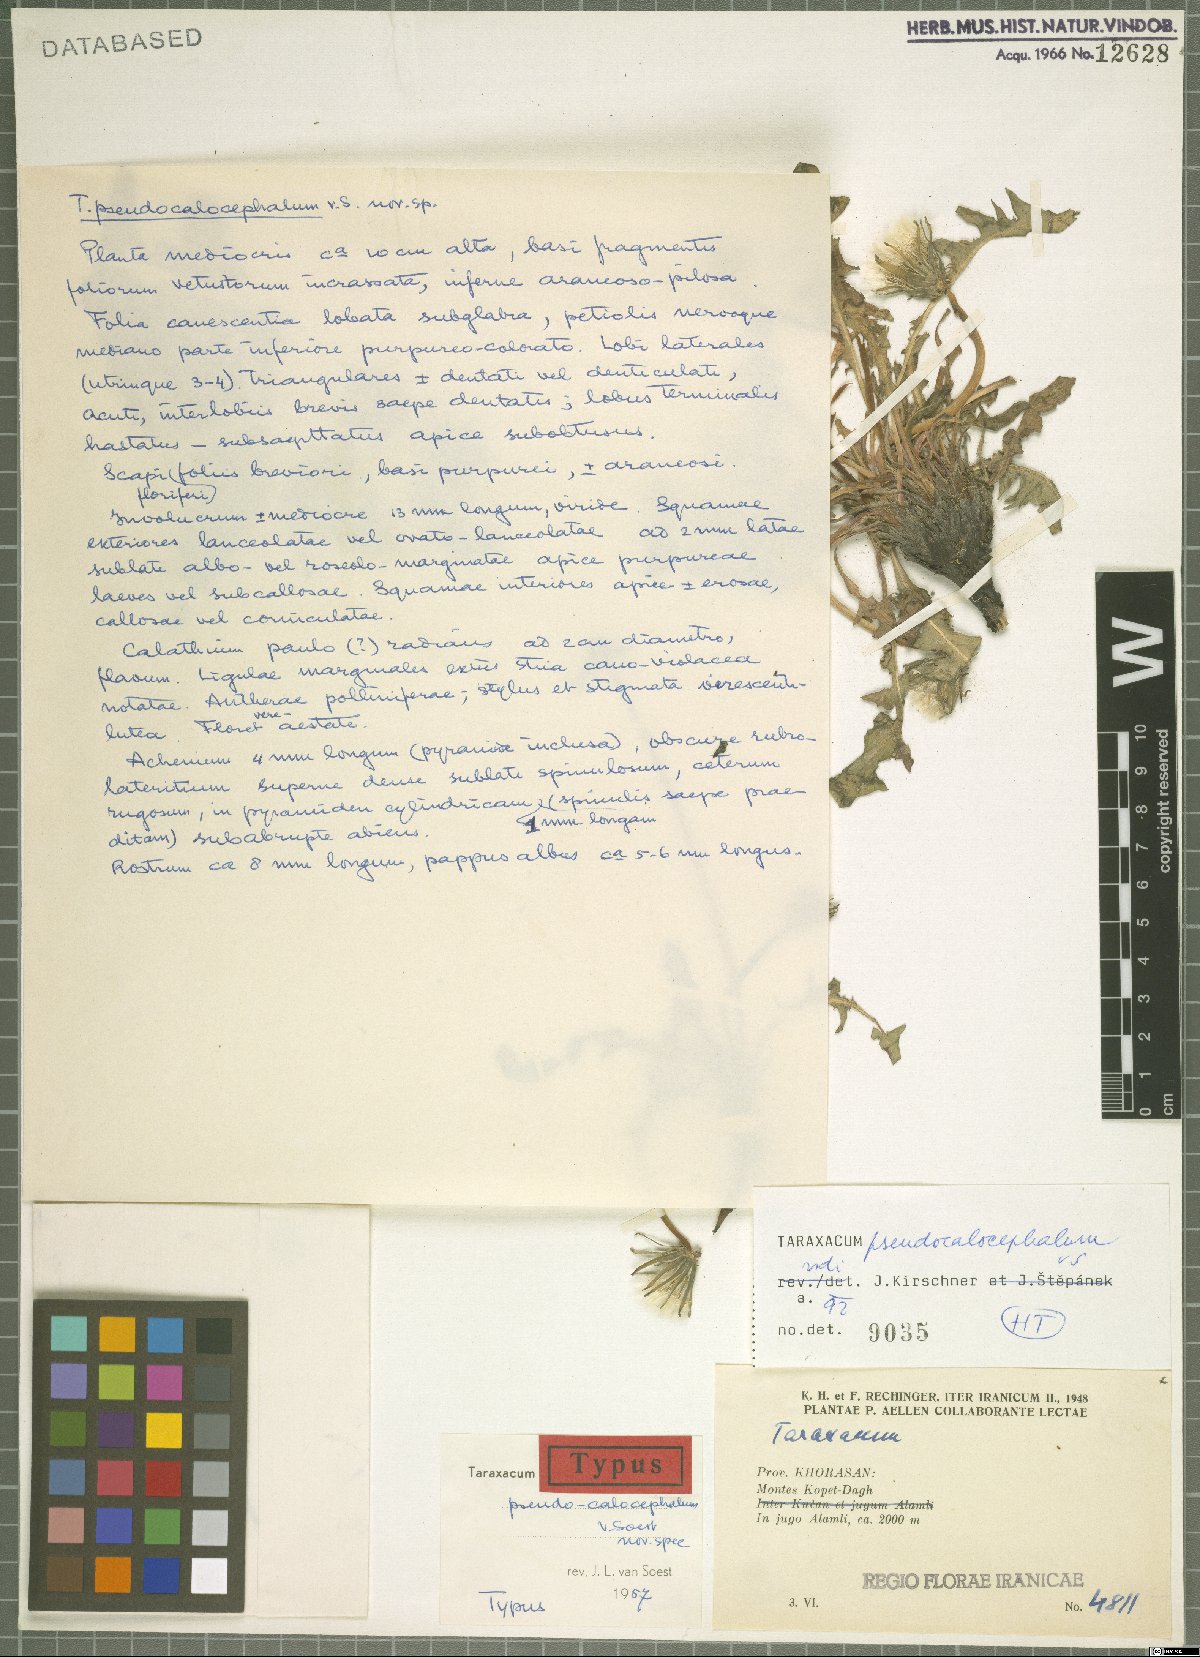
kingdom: Plantae
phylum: Tracheophyta
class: Magnoliopsida
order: Asterales
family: Asteraceae
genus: Taraxacum
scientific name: Taraxacum pseudocalocephalum
